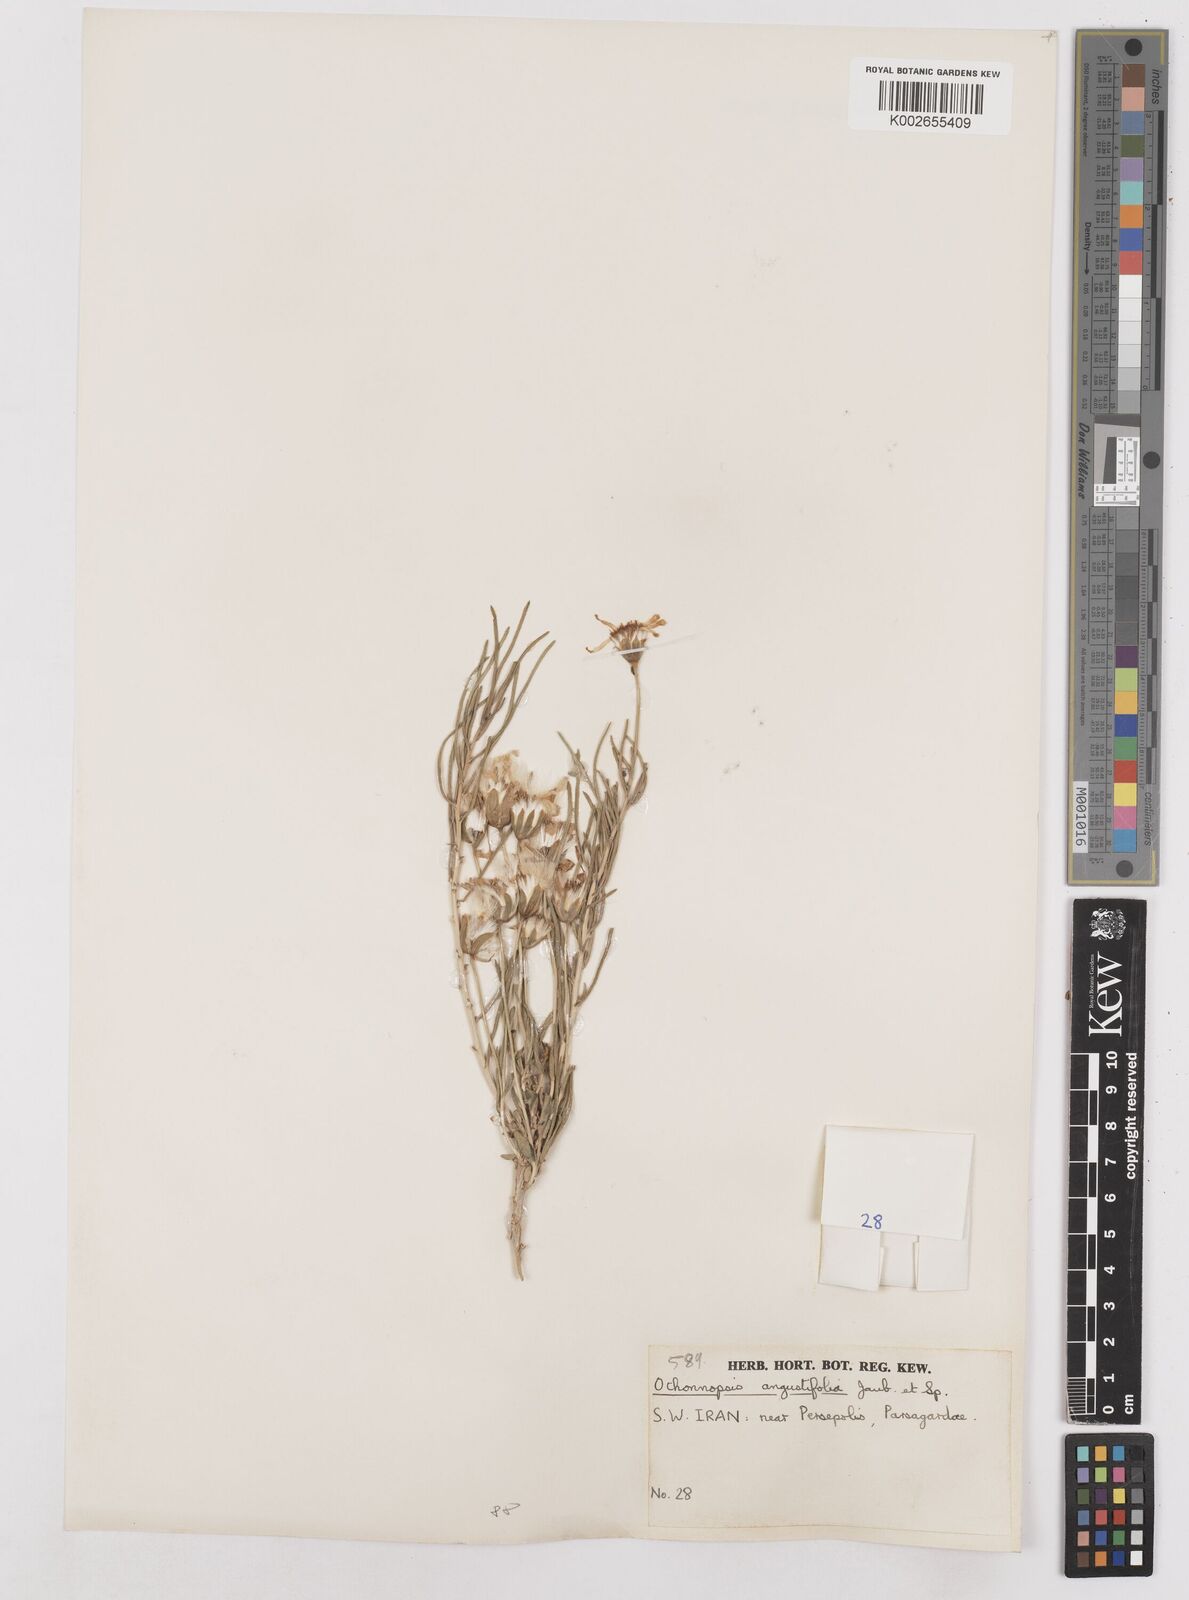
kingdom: Plantae
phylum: Tracheophyta
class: Magnoliopsida
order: Asterales
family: Asteraceae
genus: Hertia
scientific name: Hertia angustifolia
